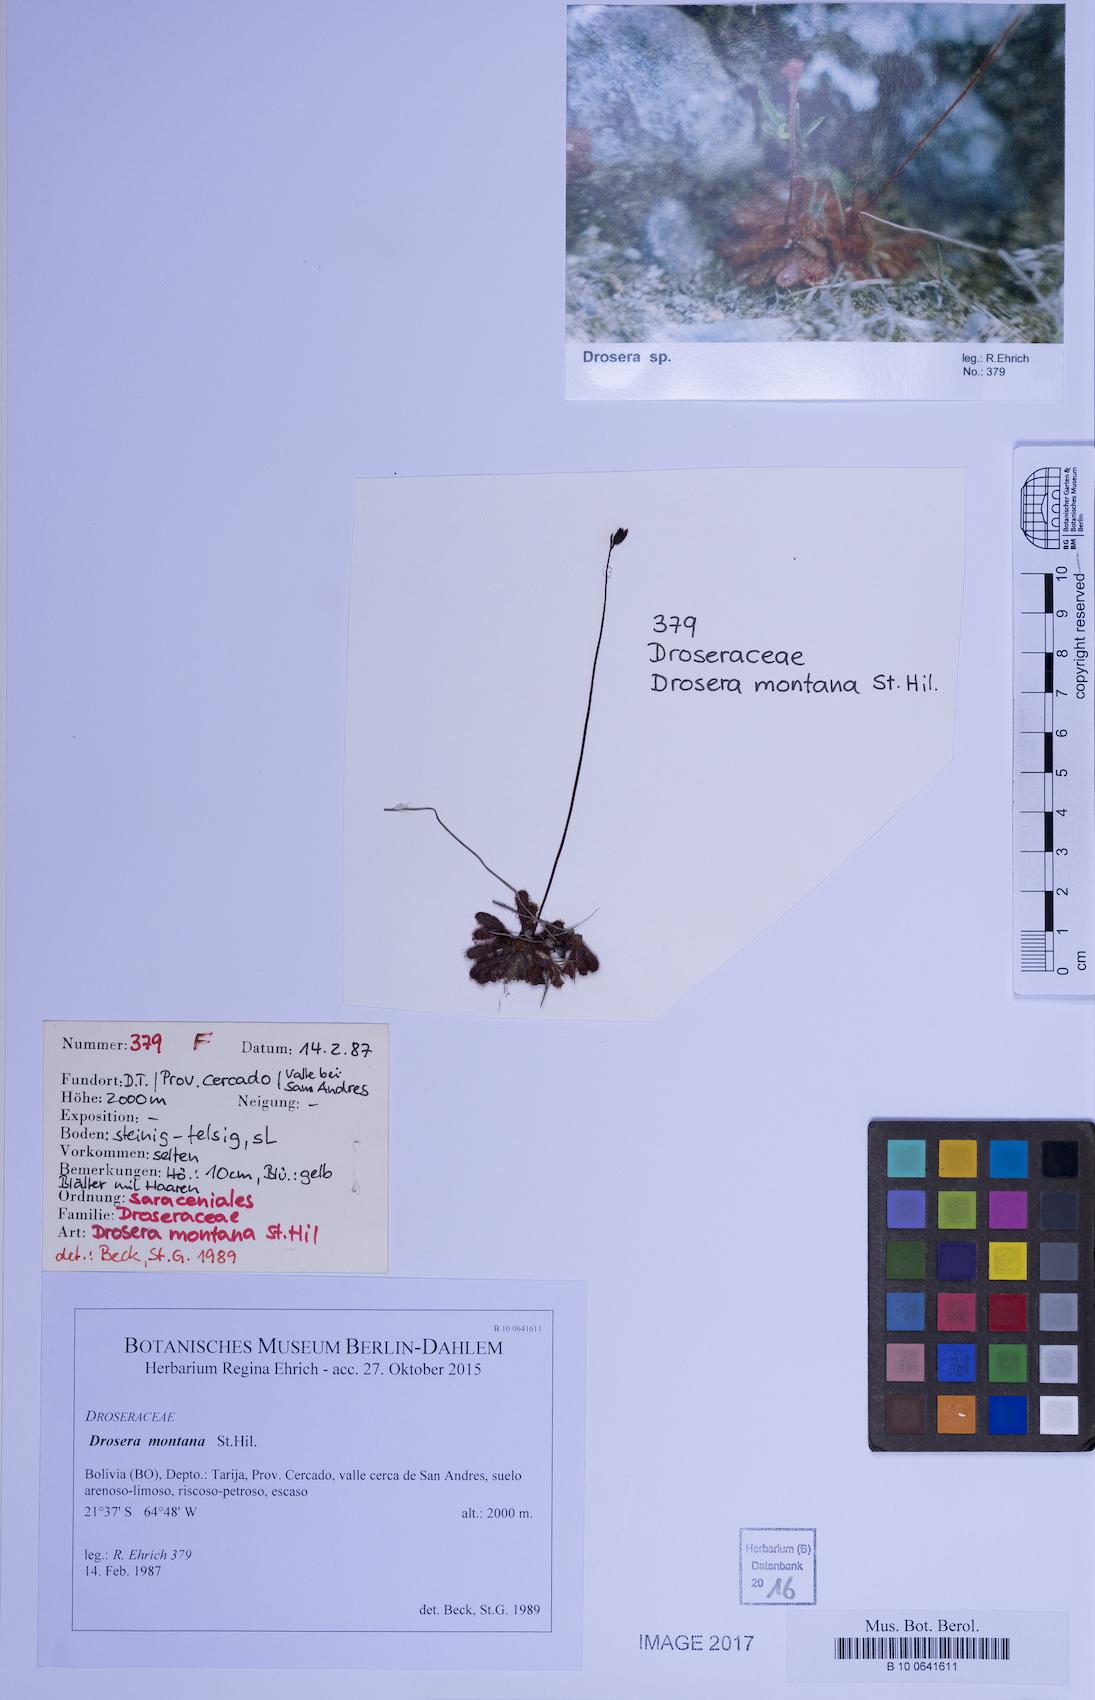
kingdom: Plantae
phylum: Tracheophyta
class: Magnoliopsida
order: Caryophyllales
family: Droseraceae
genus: Drosera
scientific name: Drosera montana
